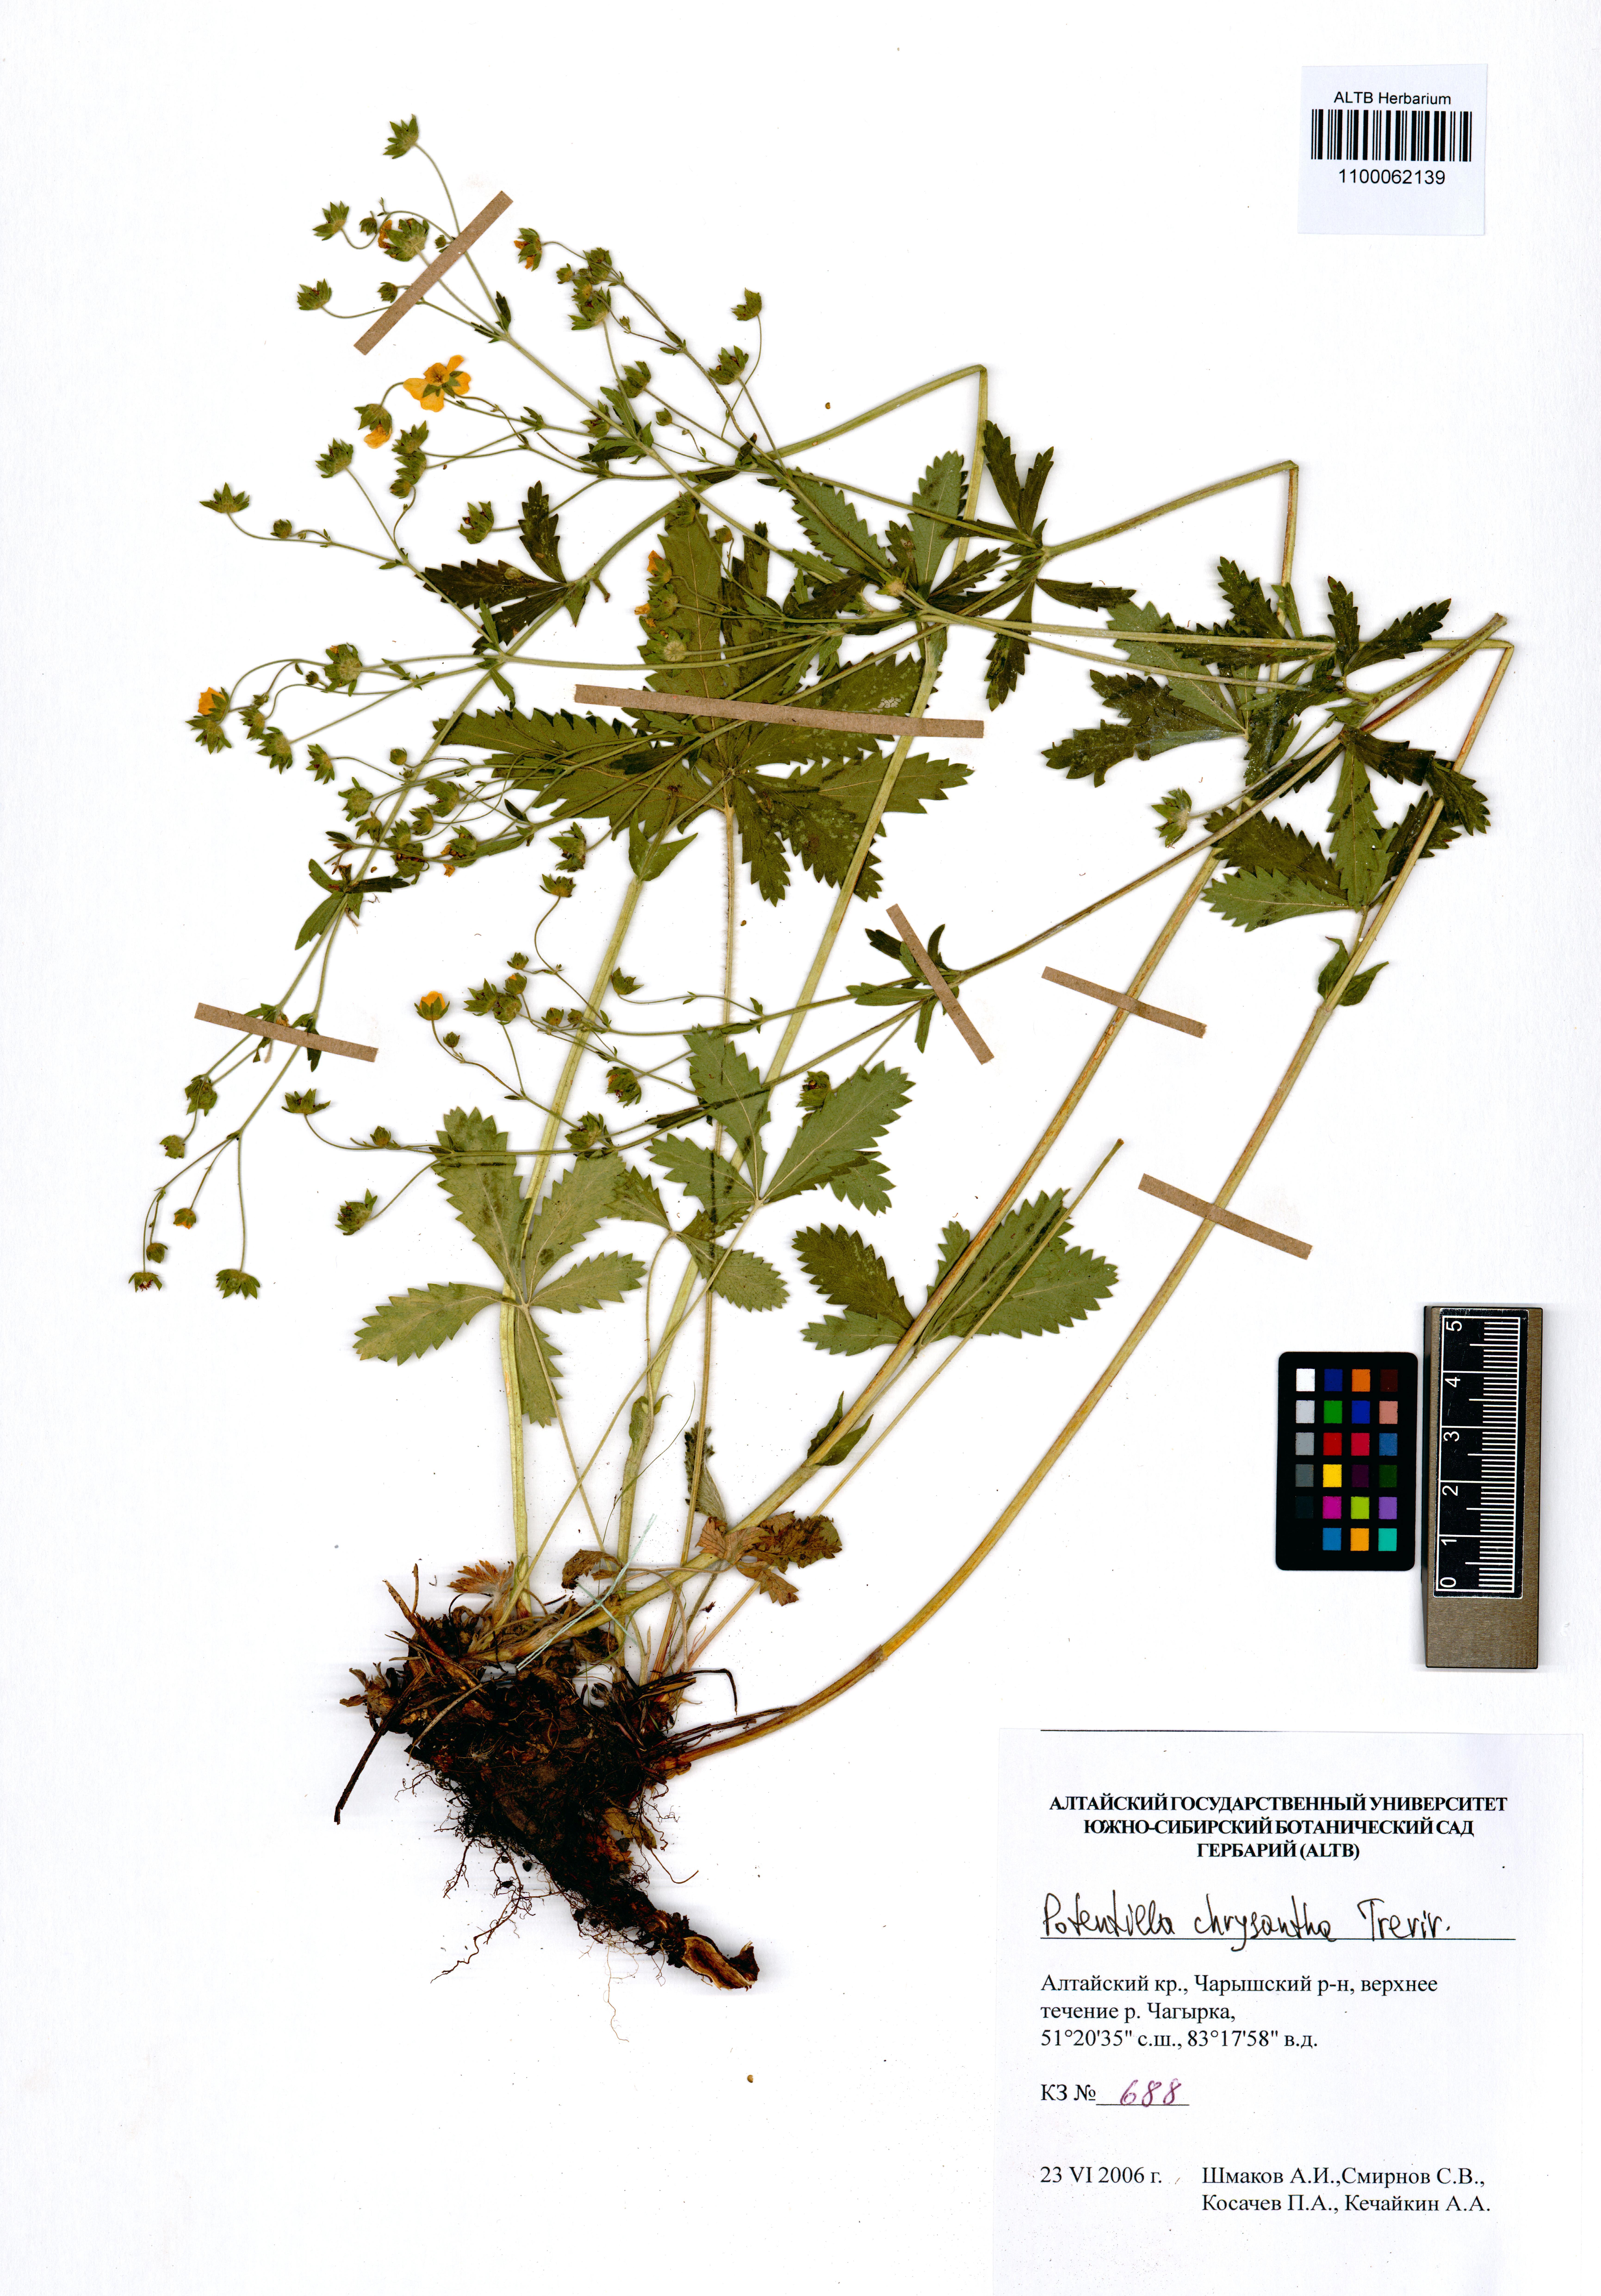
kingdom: Plantae
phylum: Tracheophyta
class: Magnoliopsida
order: Rosales
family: Rosaceae
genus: Potentilla
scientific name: Potentilla chrysantha
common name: Thuringian cinquefoil
